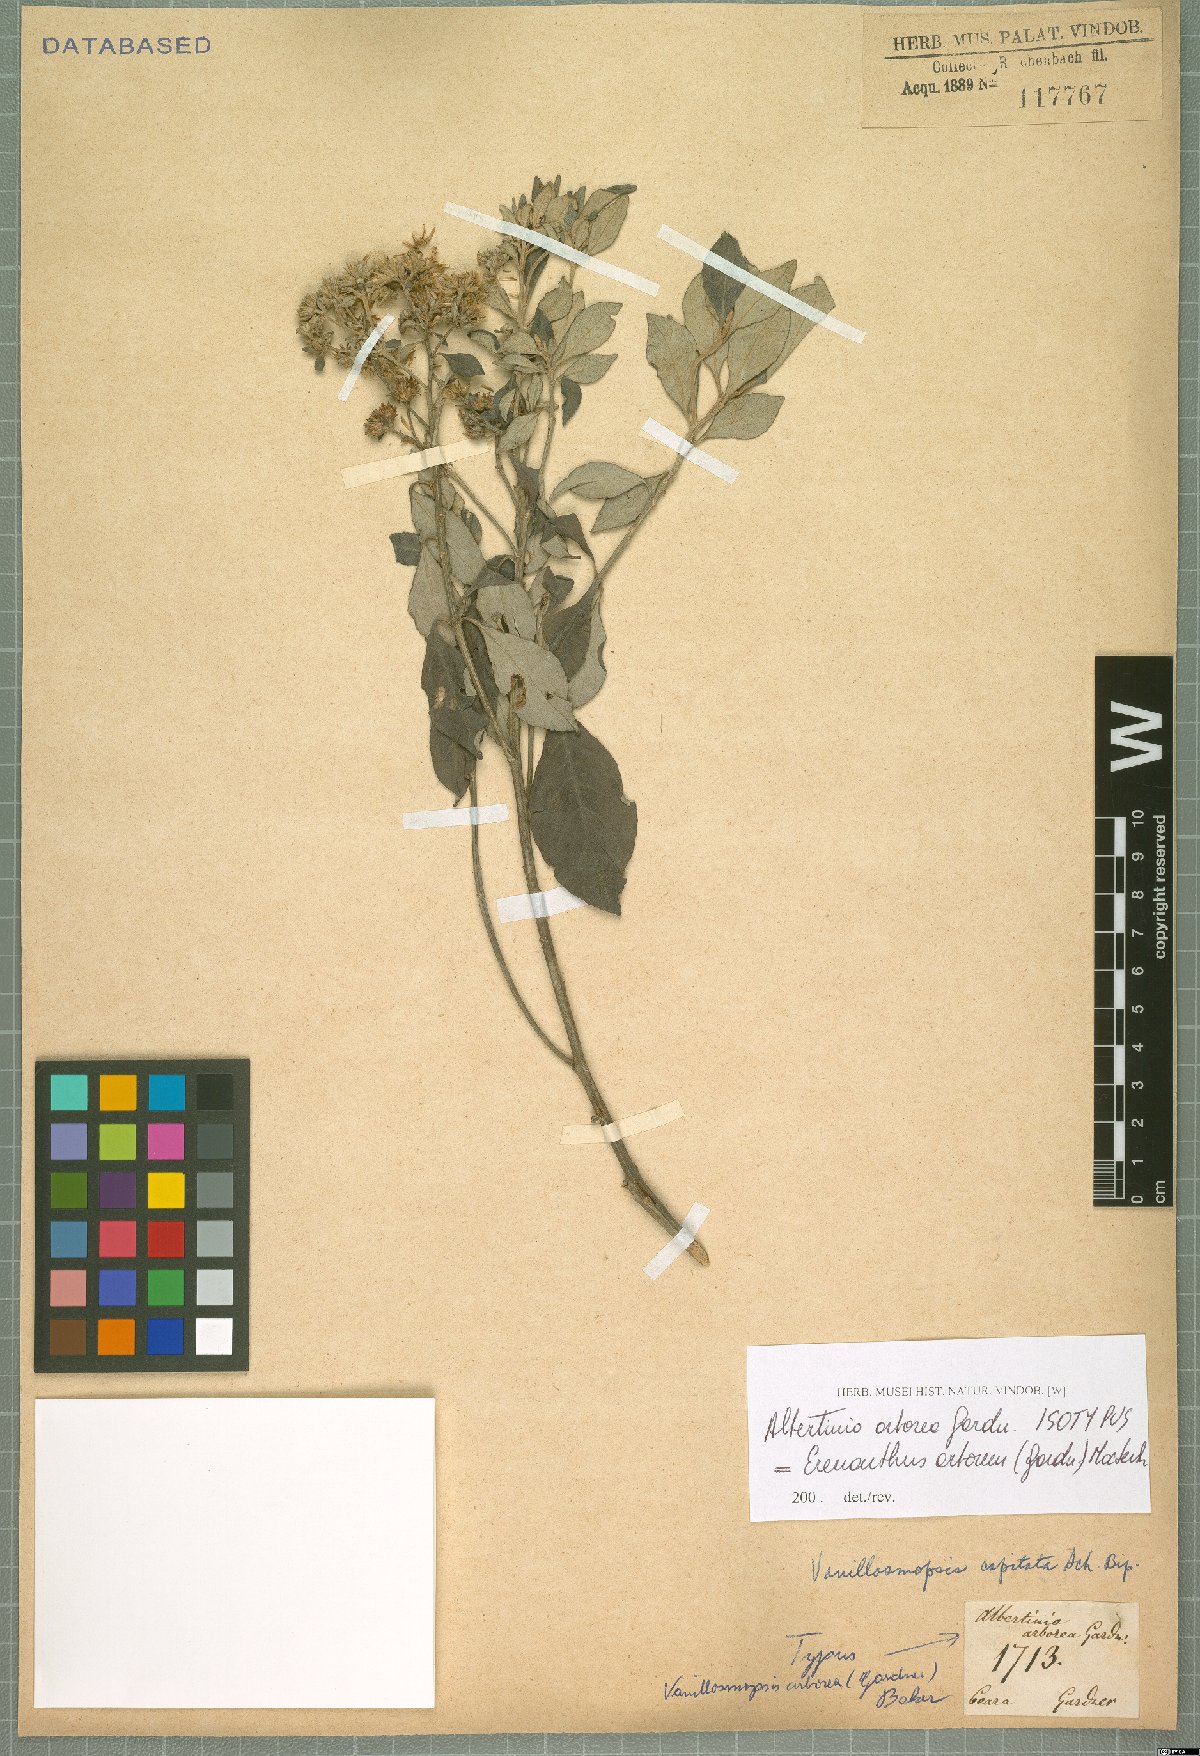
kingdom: Plantae
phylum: Tracheophyta
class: Magnoliopsida
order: Asterales
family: Asteraceae
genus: Eremanthus
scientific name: Eremanthus arboreus
